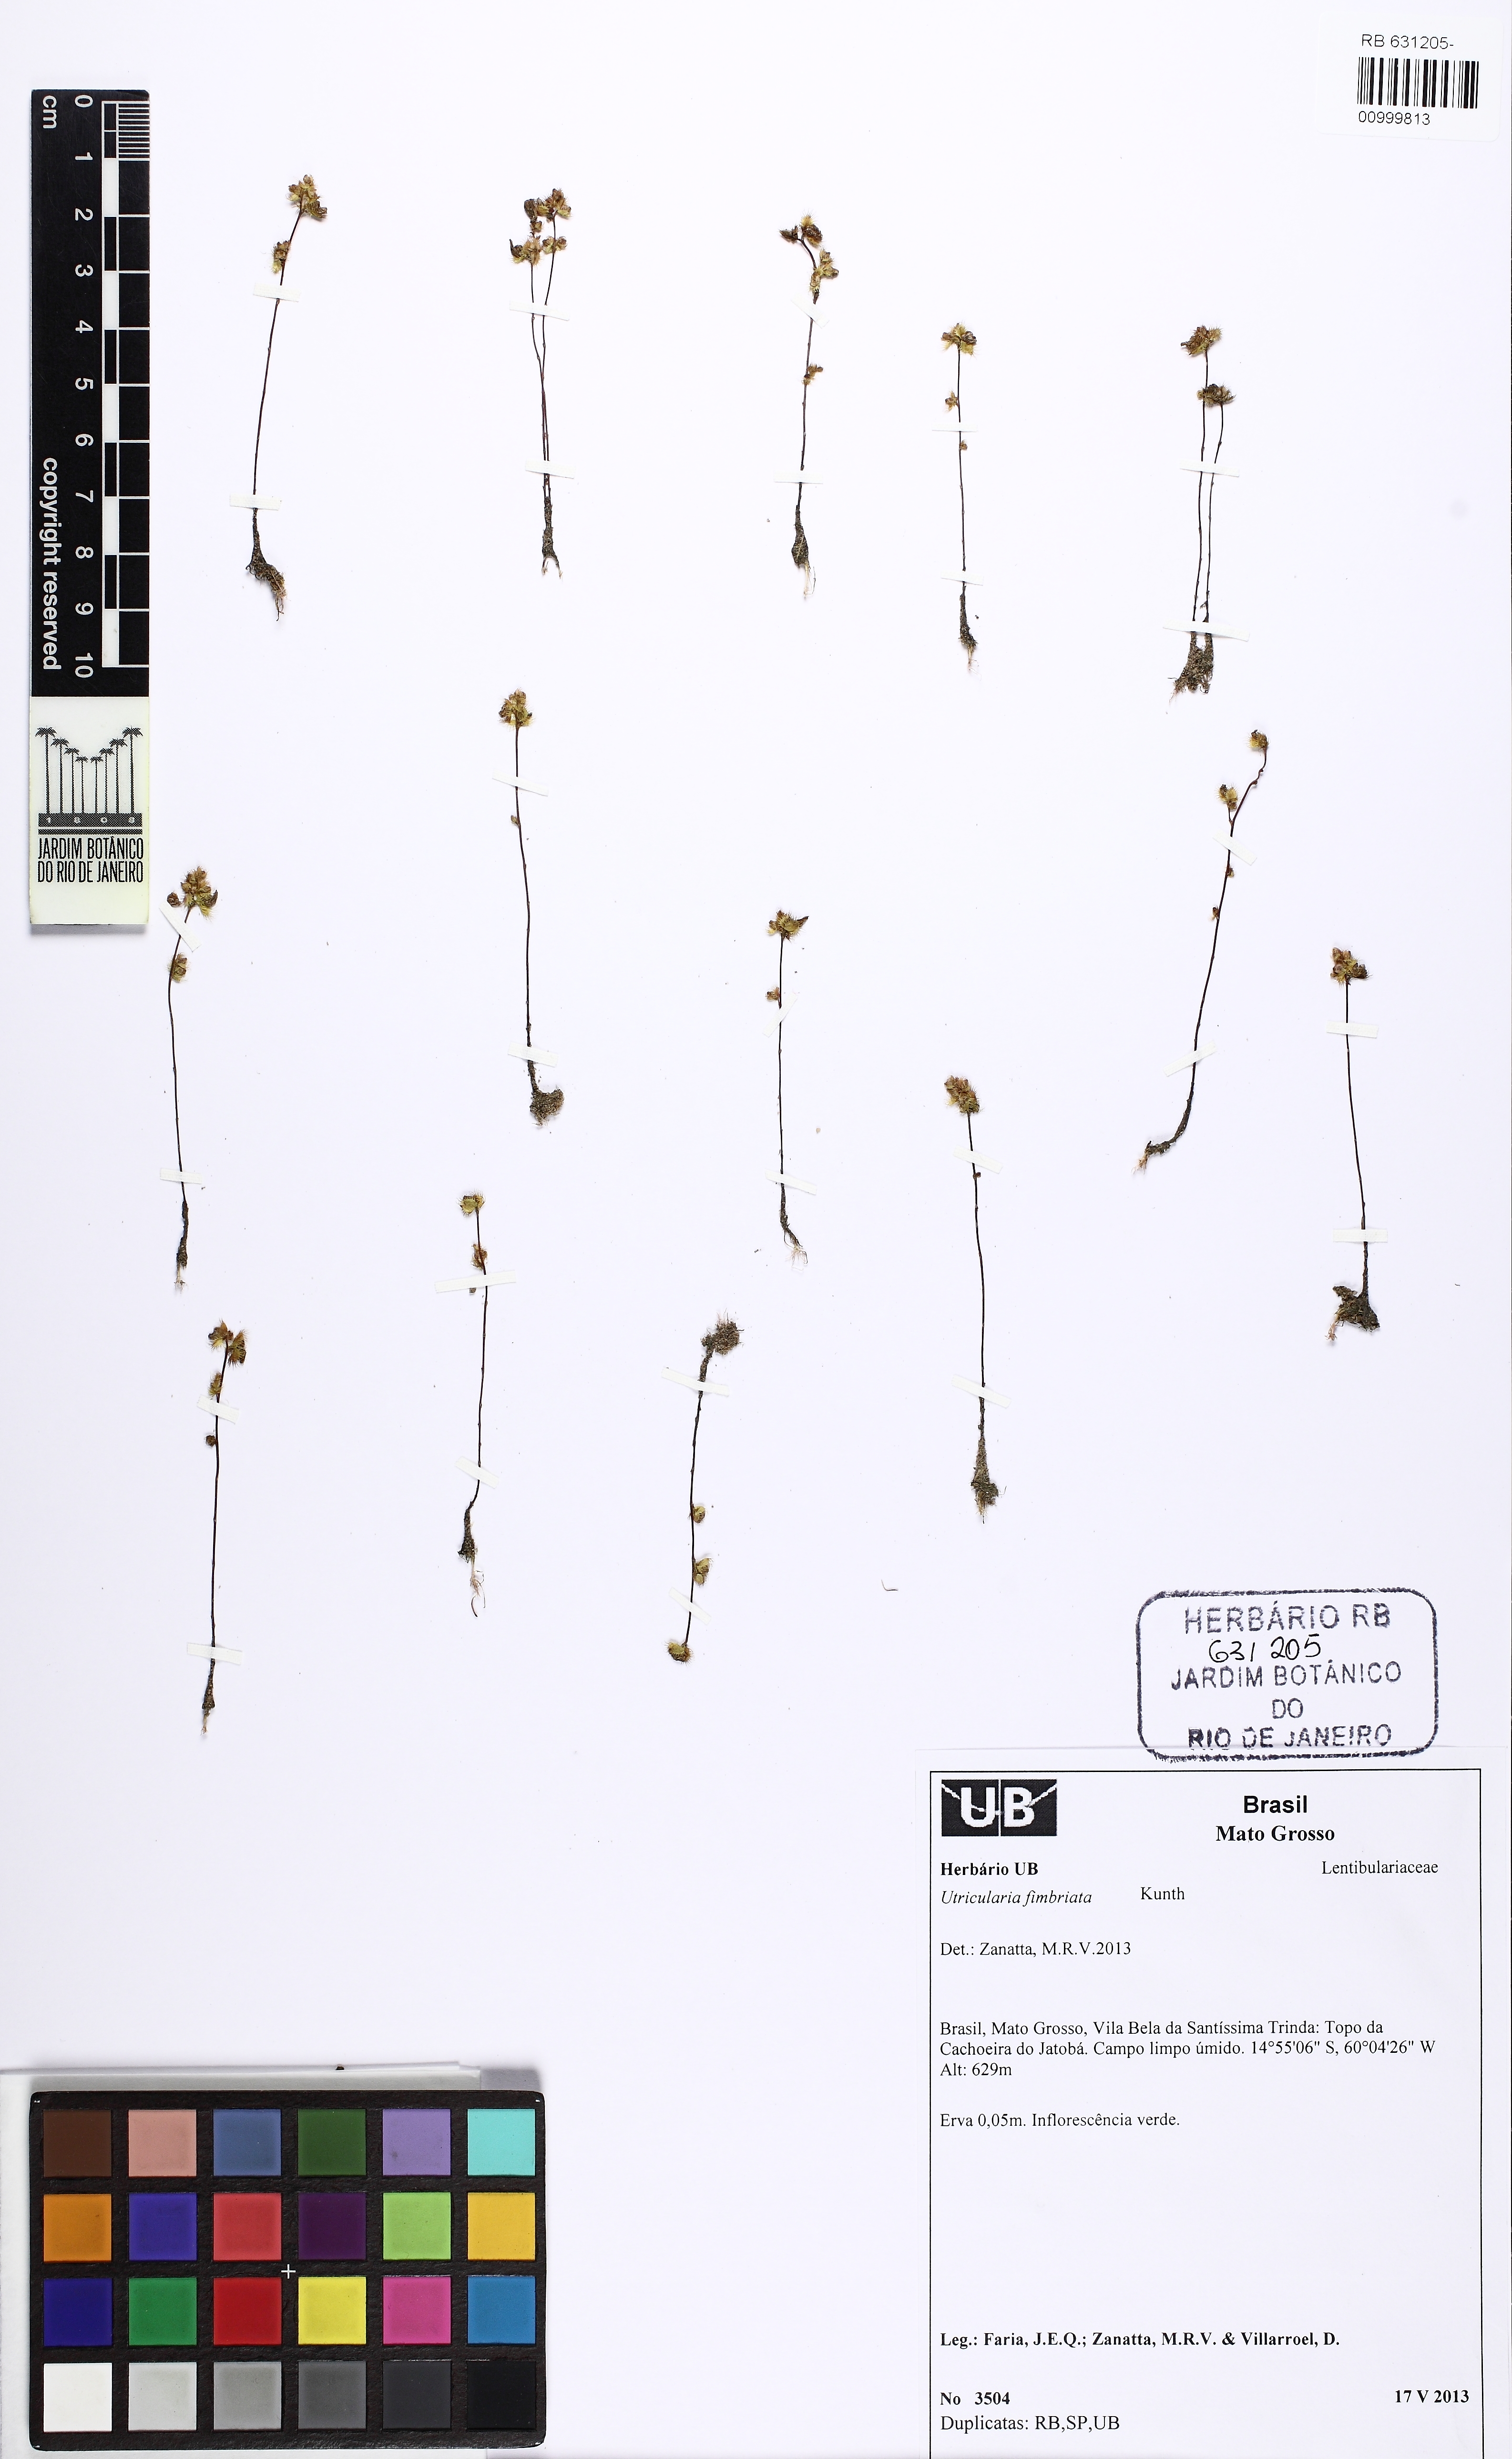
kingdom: Plantae
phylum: Tracheophyta
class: Magnoliopsida
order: Lamiales
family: Lentibulariaceae
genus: Utricularia
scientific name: Utricularia simulans
